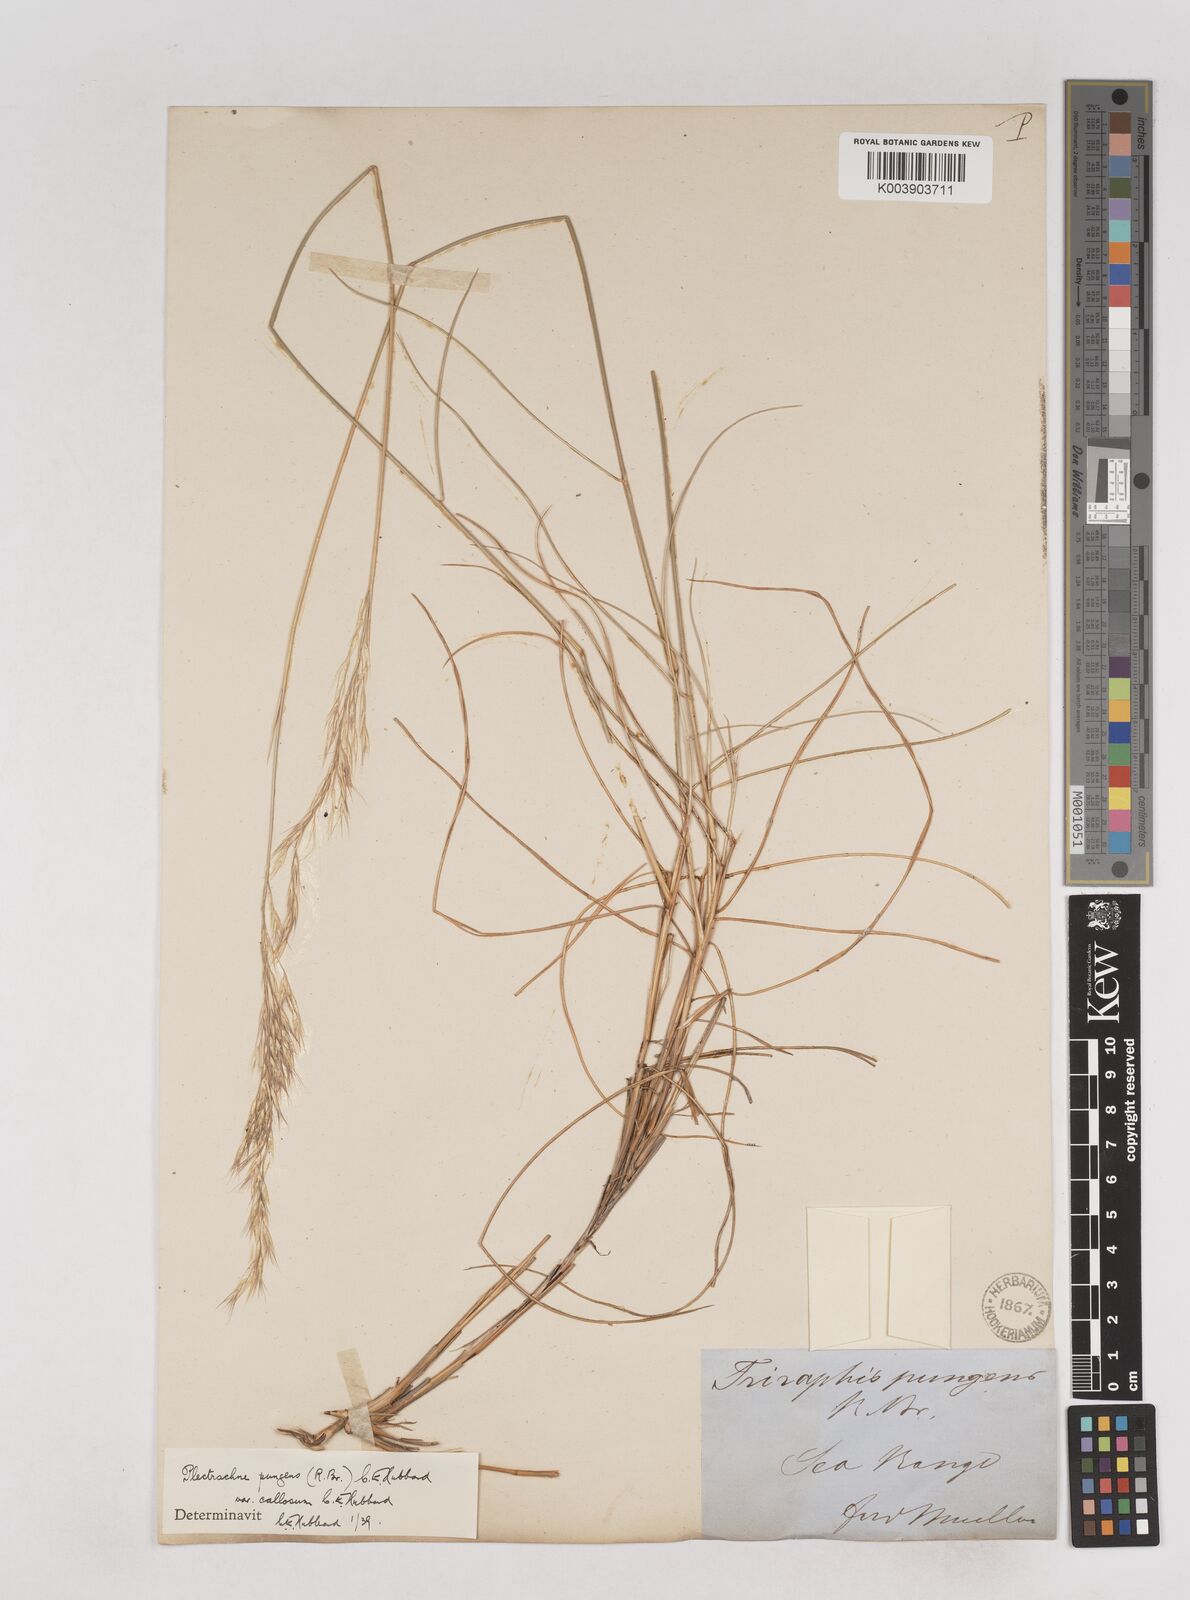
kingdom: Plantae
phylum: Tracheophyta
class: Liliopsida
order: Poales
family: Poaceae
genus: Triodia
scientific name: Triodia bitextura
